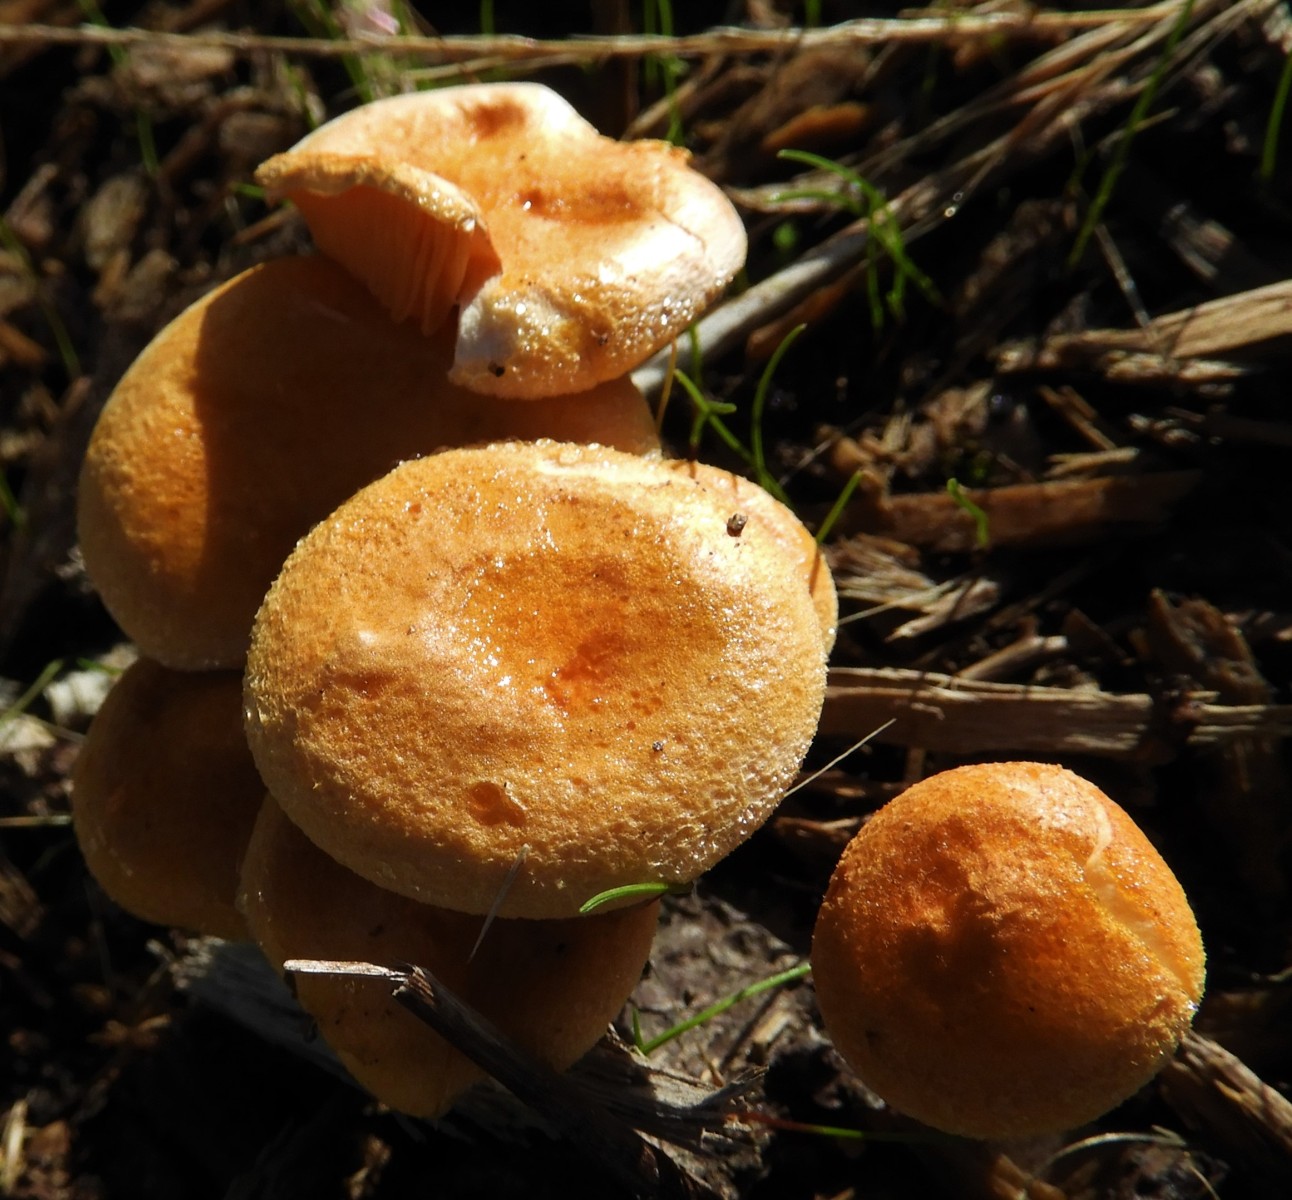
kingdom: Fungi
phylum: Basidiomycota
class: Agaricomycetes
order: Boletales
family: Hygrophoropsidaceae
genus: Hygrophoropsis
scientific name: Hygrophoropsis aurantiaca
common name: almindelig orangekantarel
